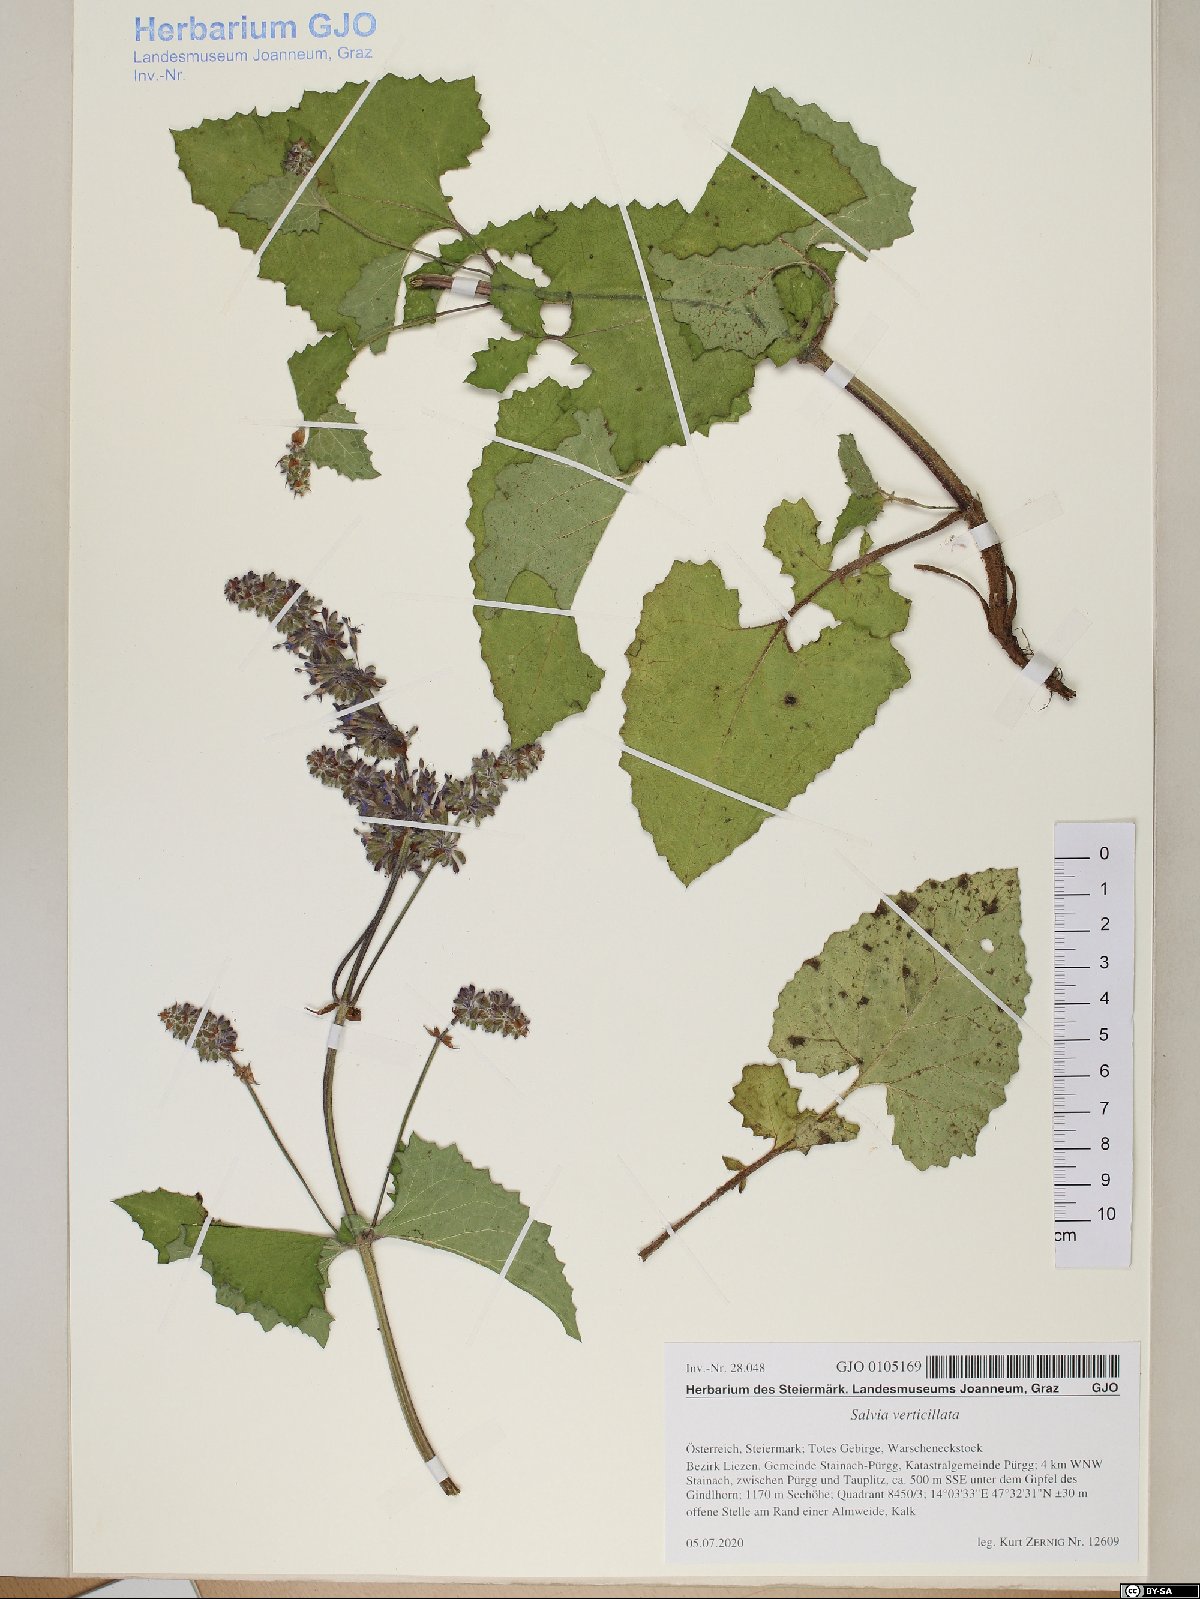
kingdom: Plantae
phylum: Tracheophyta
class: Magnoliopsida
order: Lamiales
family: Lamiaceae
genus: Salvia
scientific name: Salvia verticillata
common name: Whorled clary
